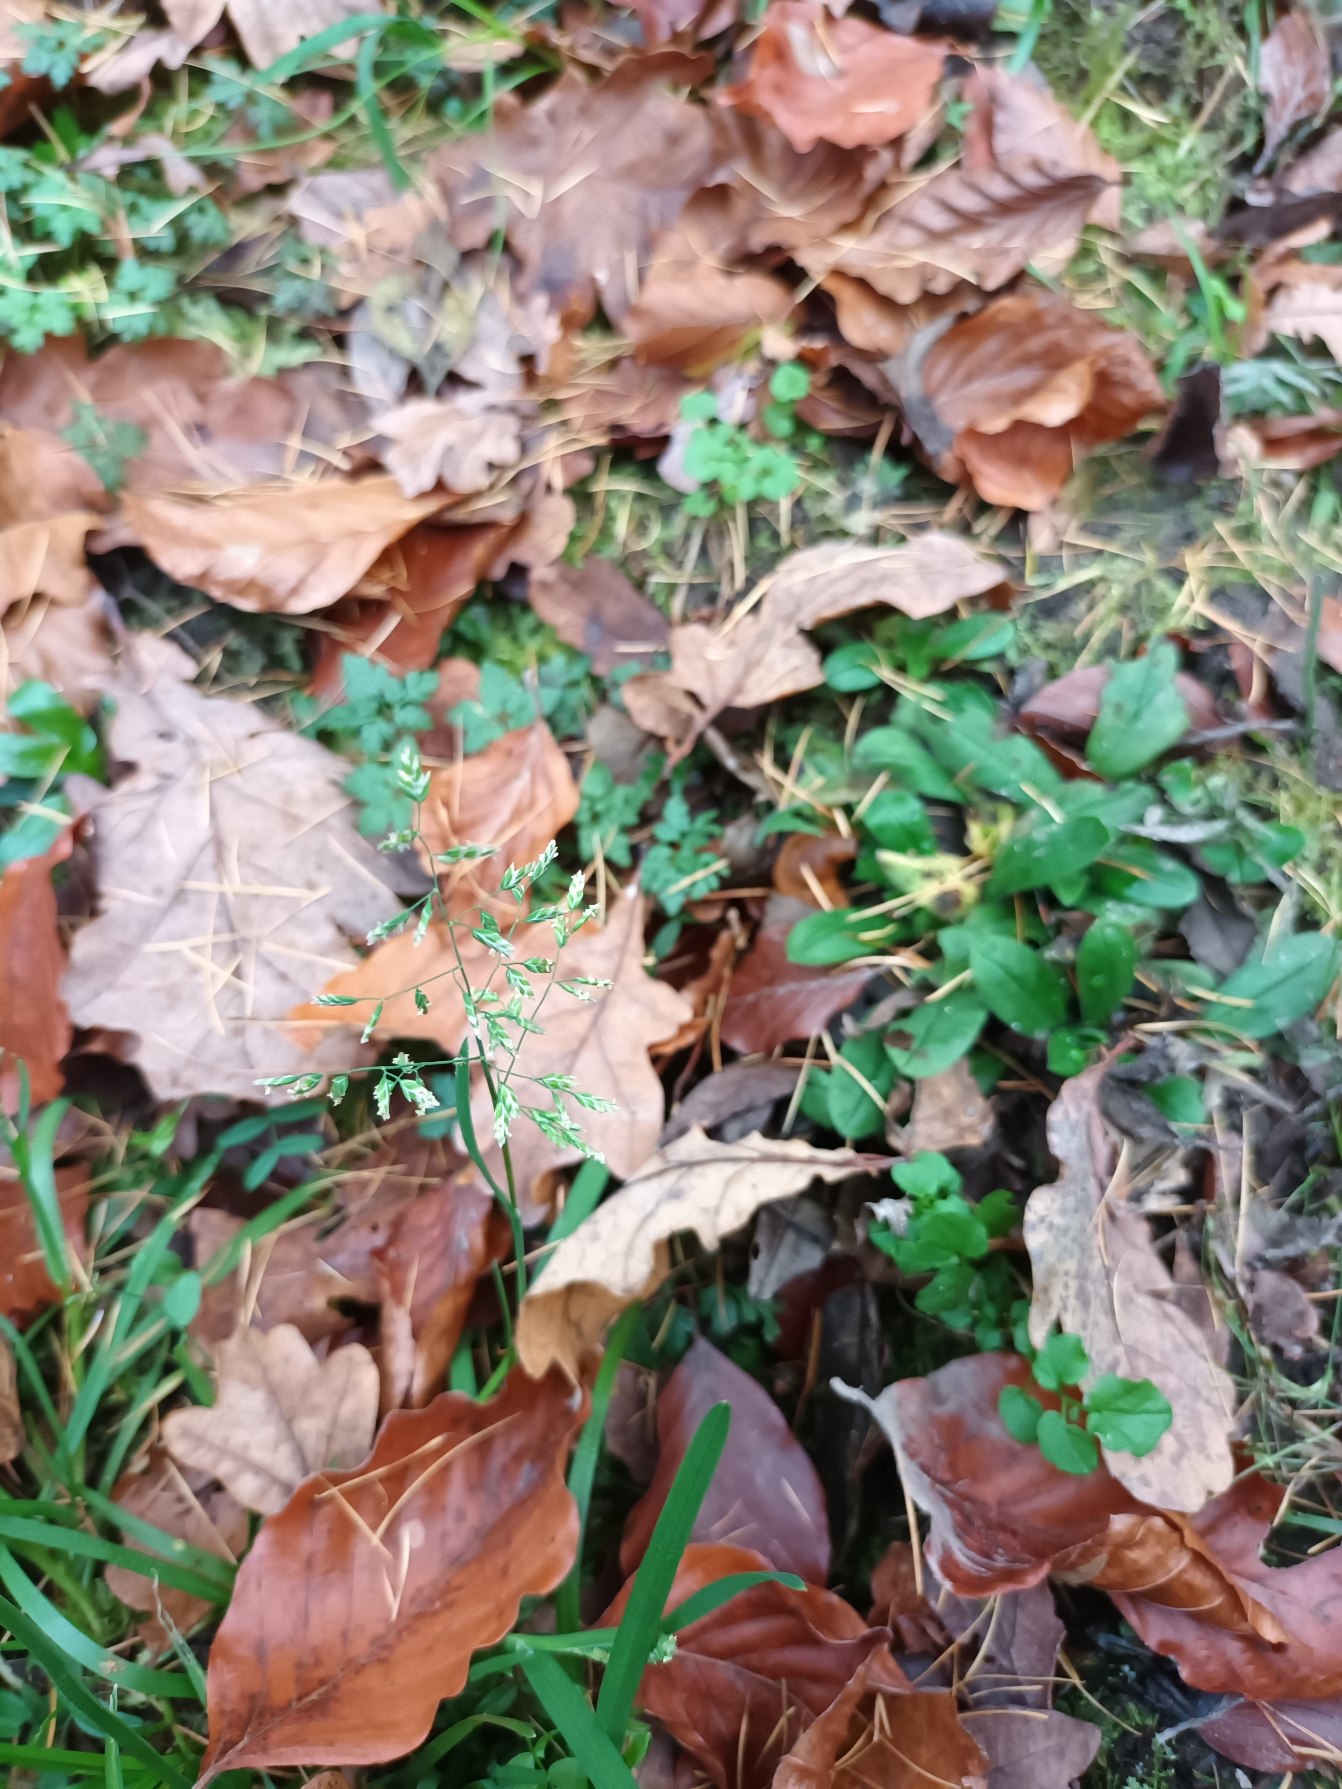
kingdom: Plantae
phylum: Tracheophyta
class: Liliopsida
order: Poales
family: Poaceae
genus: Poa
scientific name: Poa annua
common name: Enårig rapgræs
